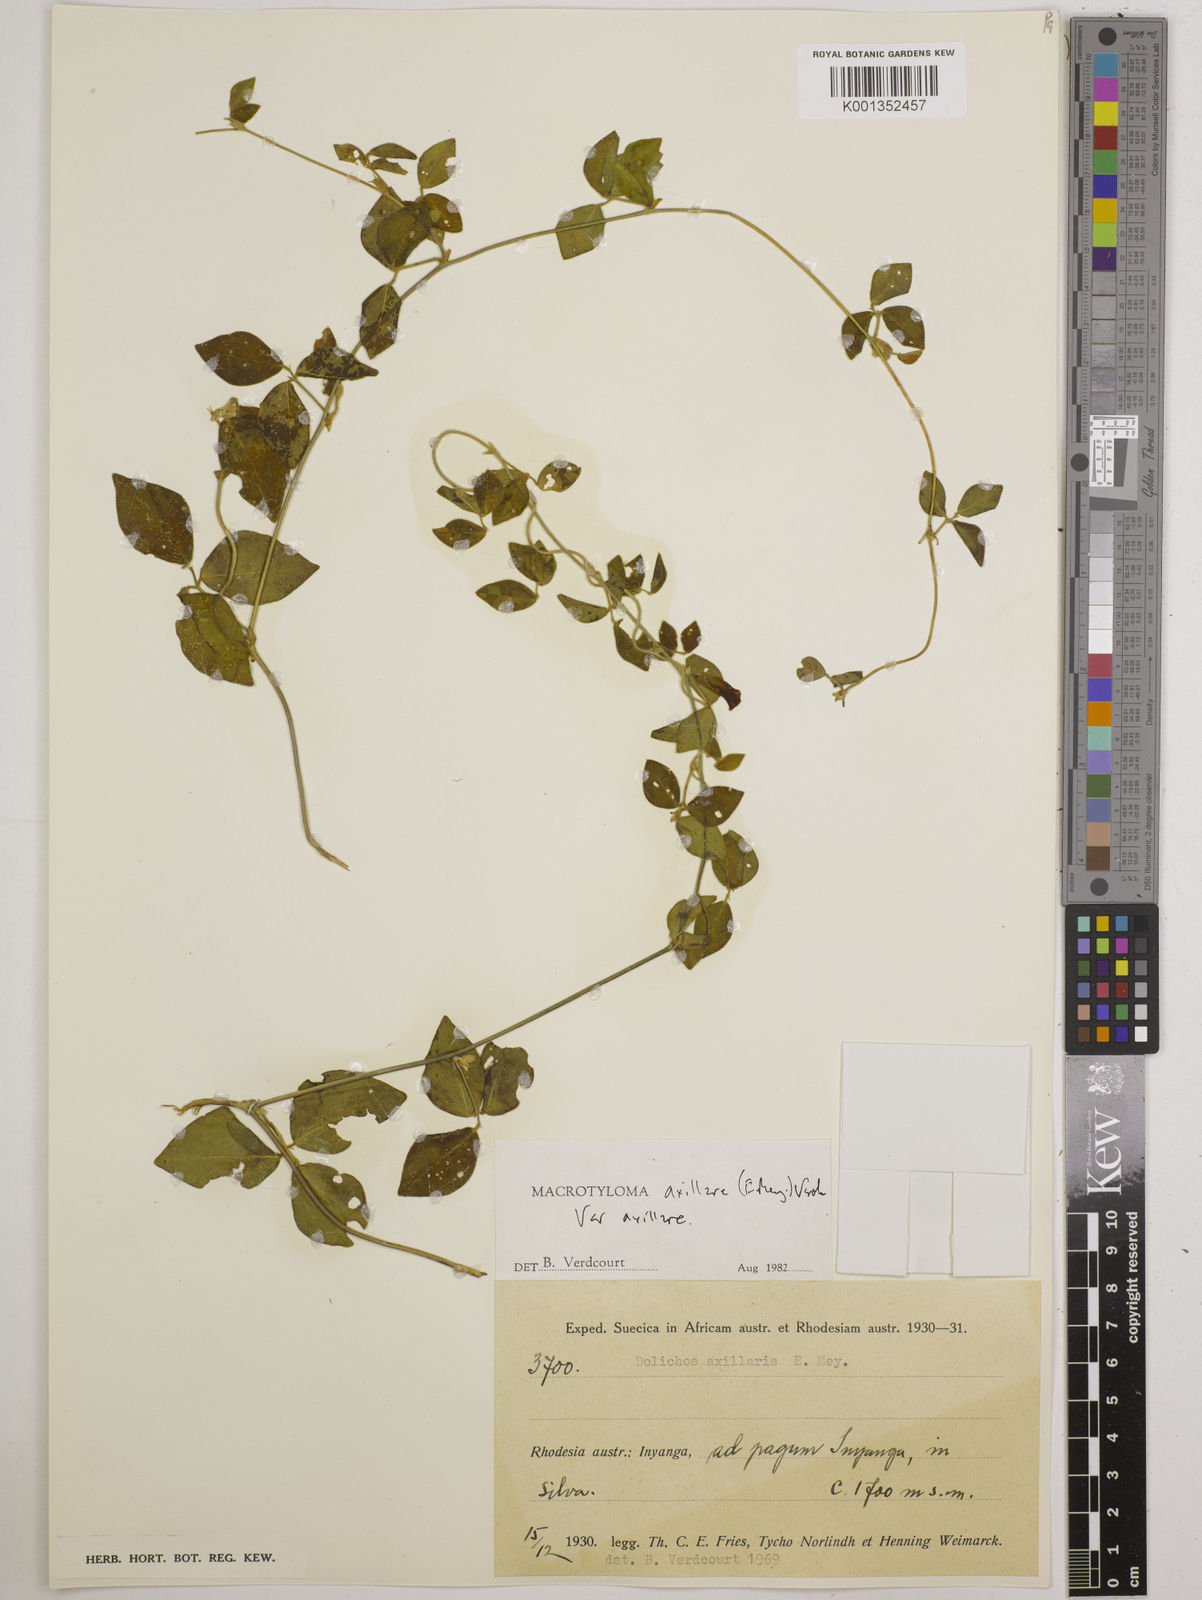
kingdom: Plantae
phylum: Tracheophyta
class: Magnoliopsida
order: Fabales
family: Fabaceae
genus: Macrotyloma
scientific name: Macrotyloma axillare
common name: Perennial horsegram
